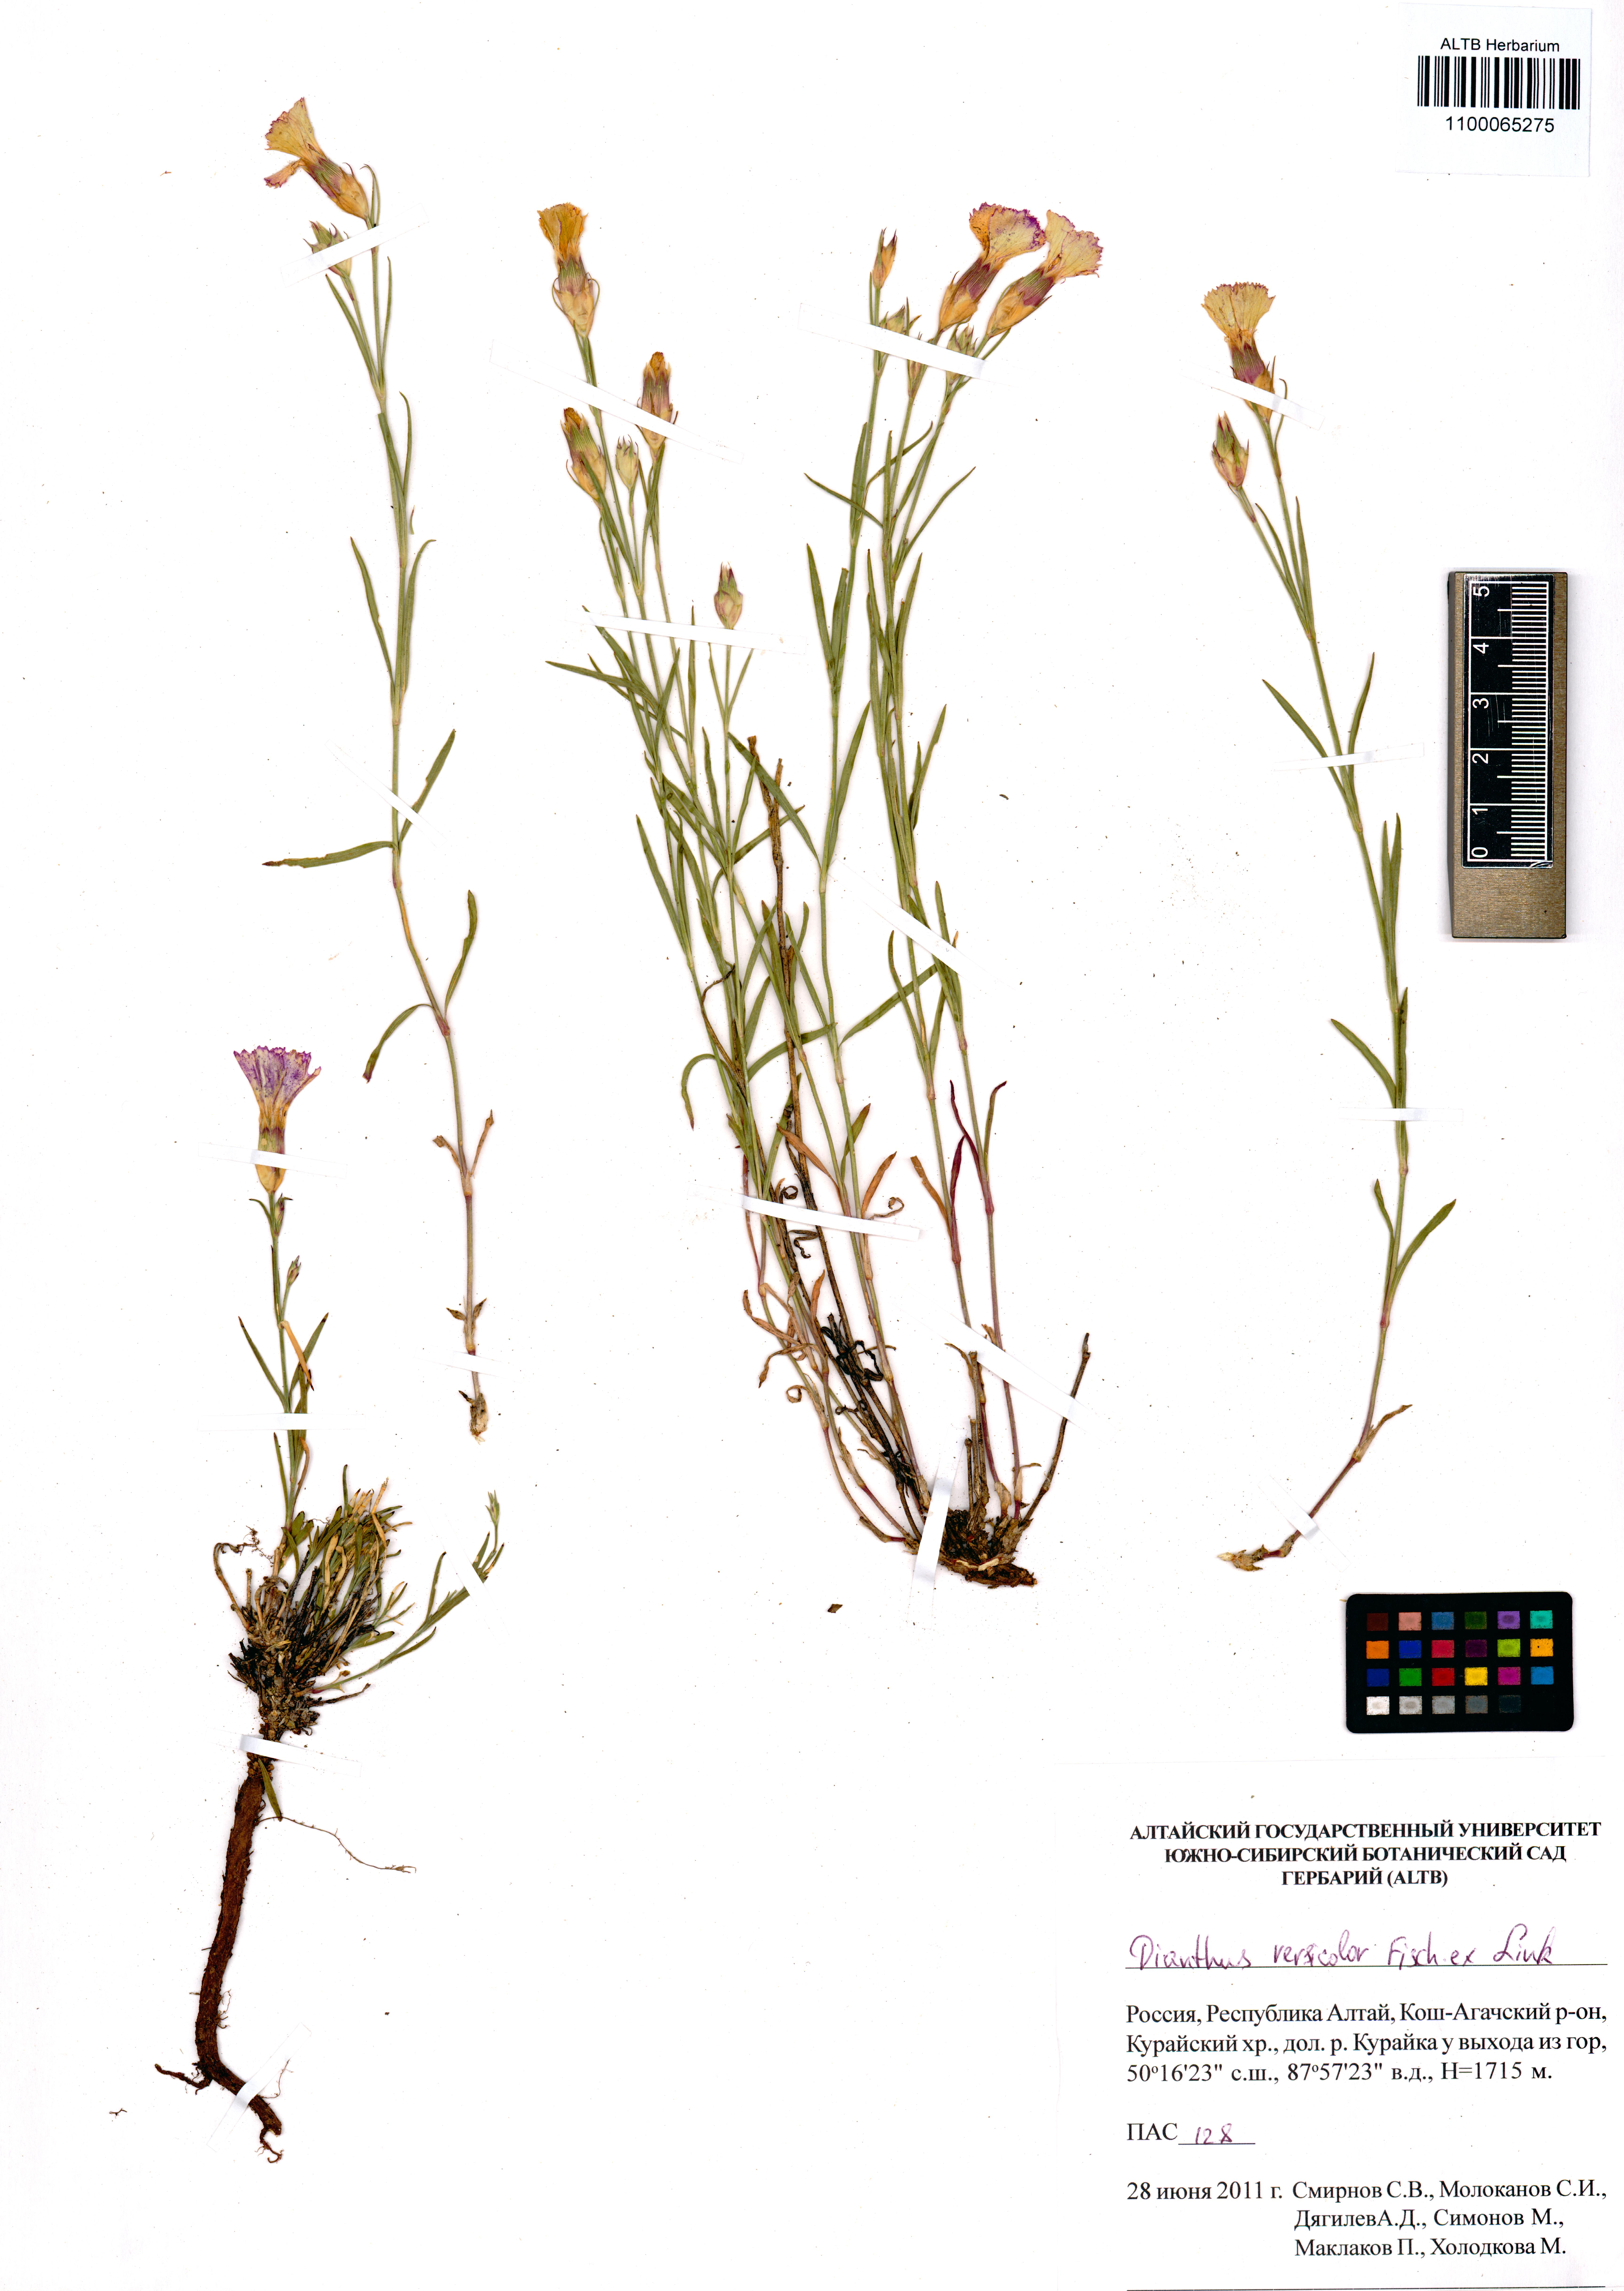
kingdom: Plantae
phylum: Tracheophyta
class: Magnoliopsida
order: Caryophyllales
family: Caryophyllaceae
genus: Dianthus
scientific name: Dianthus chinensis
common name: Rainbow pink
